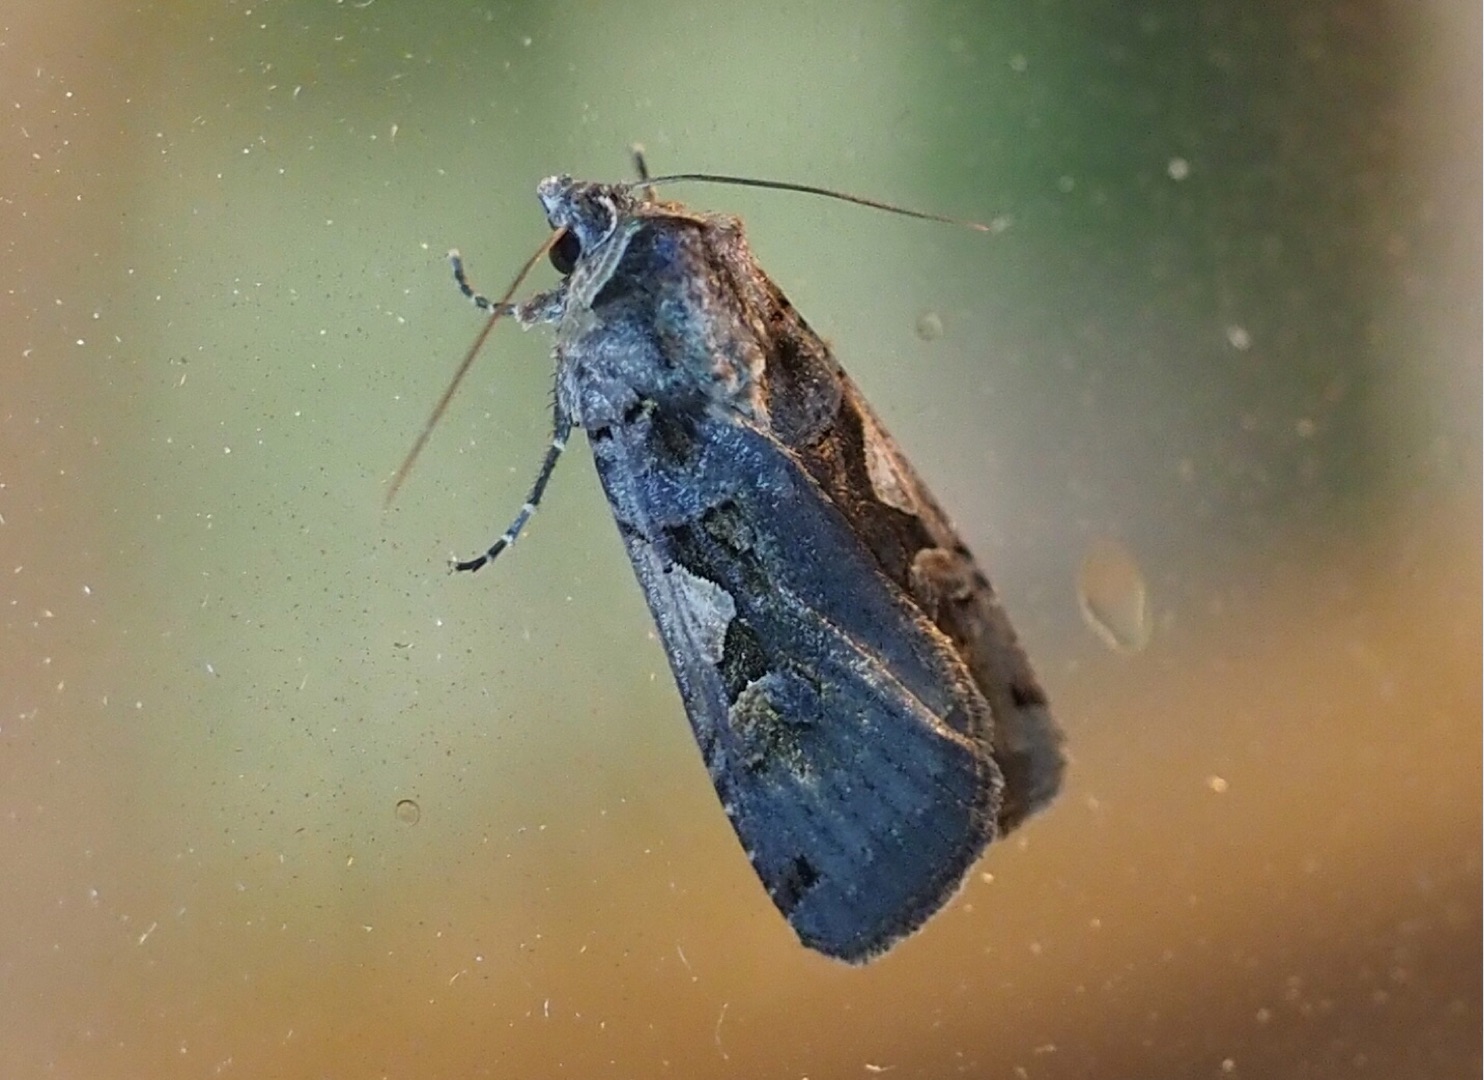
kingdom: Animalia
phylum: Arthropoda
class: Insecta
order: Lepidoptera
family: Noctuidae
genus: Xestia
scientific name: Xestia c-nigrum
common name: Det sorte c
